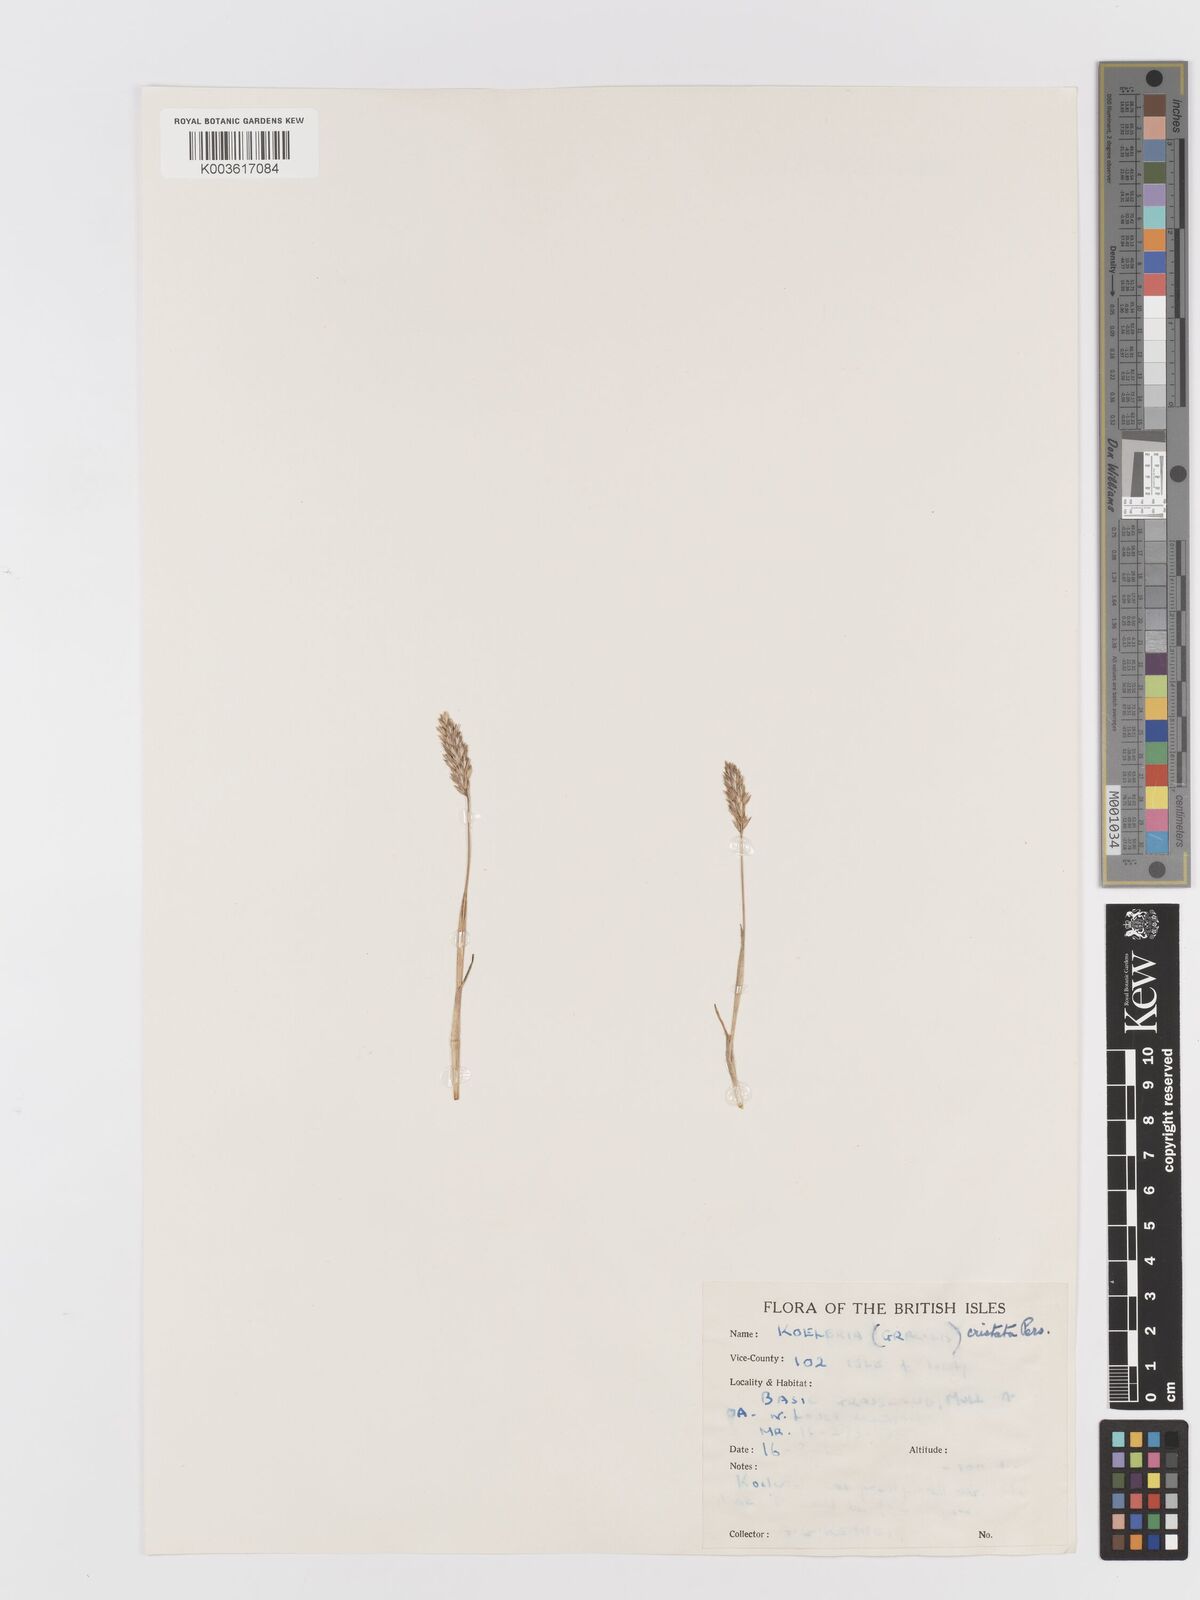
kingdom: Plantae
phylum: Tracheophyta
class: Liliopsida
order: Poales
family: Poaceae
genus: Koeleria
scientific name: Koeleria macrantha
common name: Crested hair-grass
